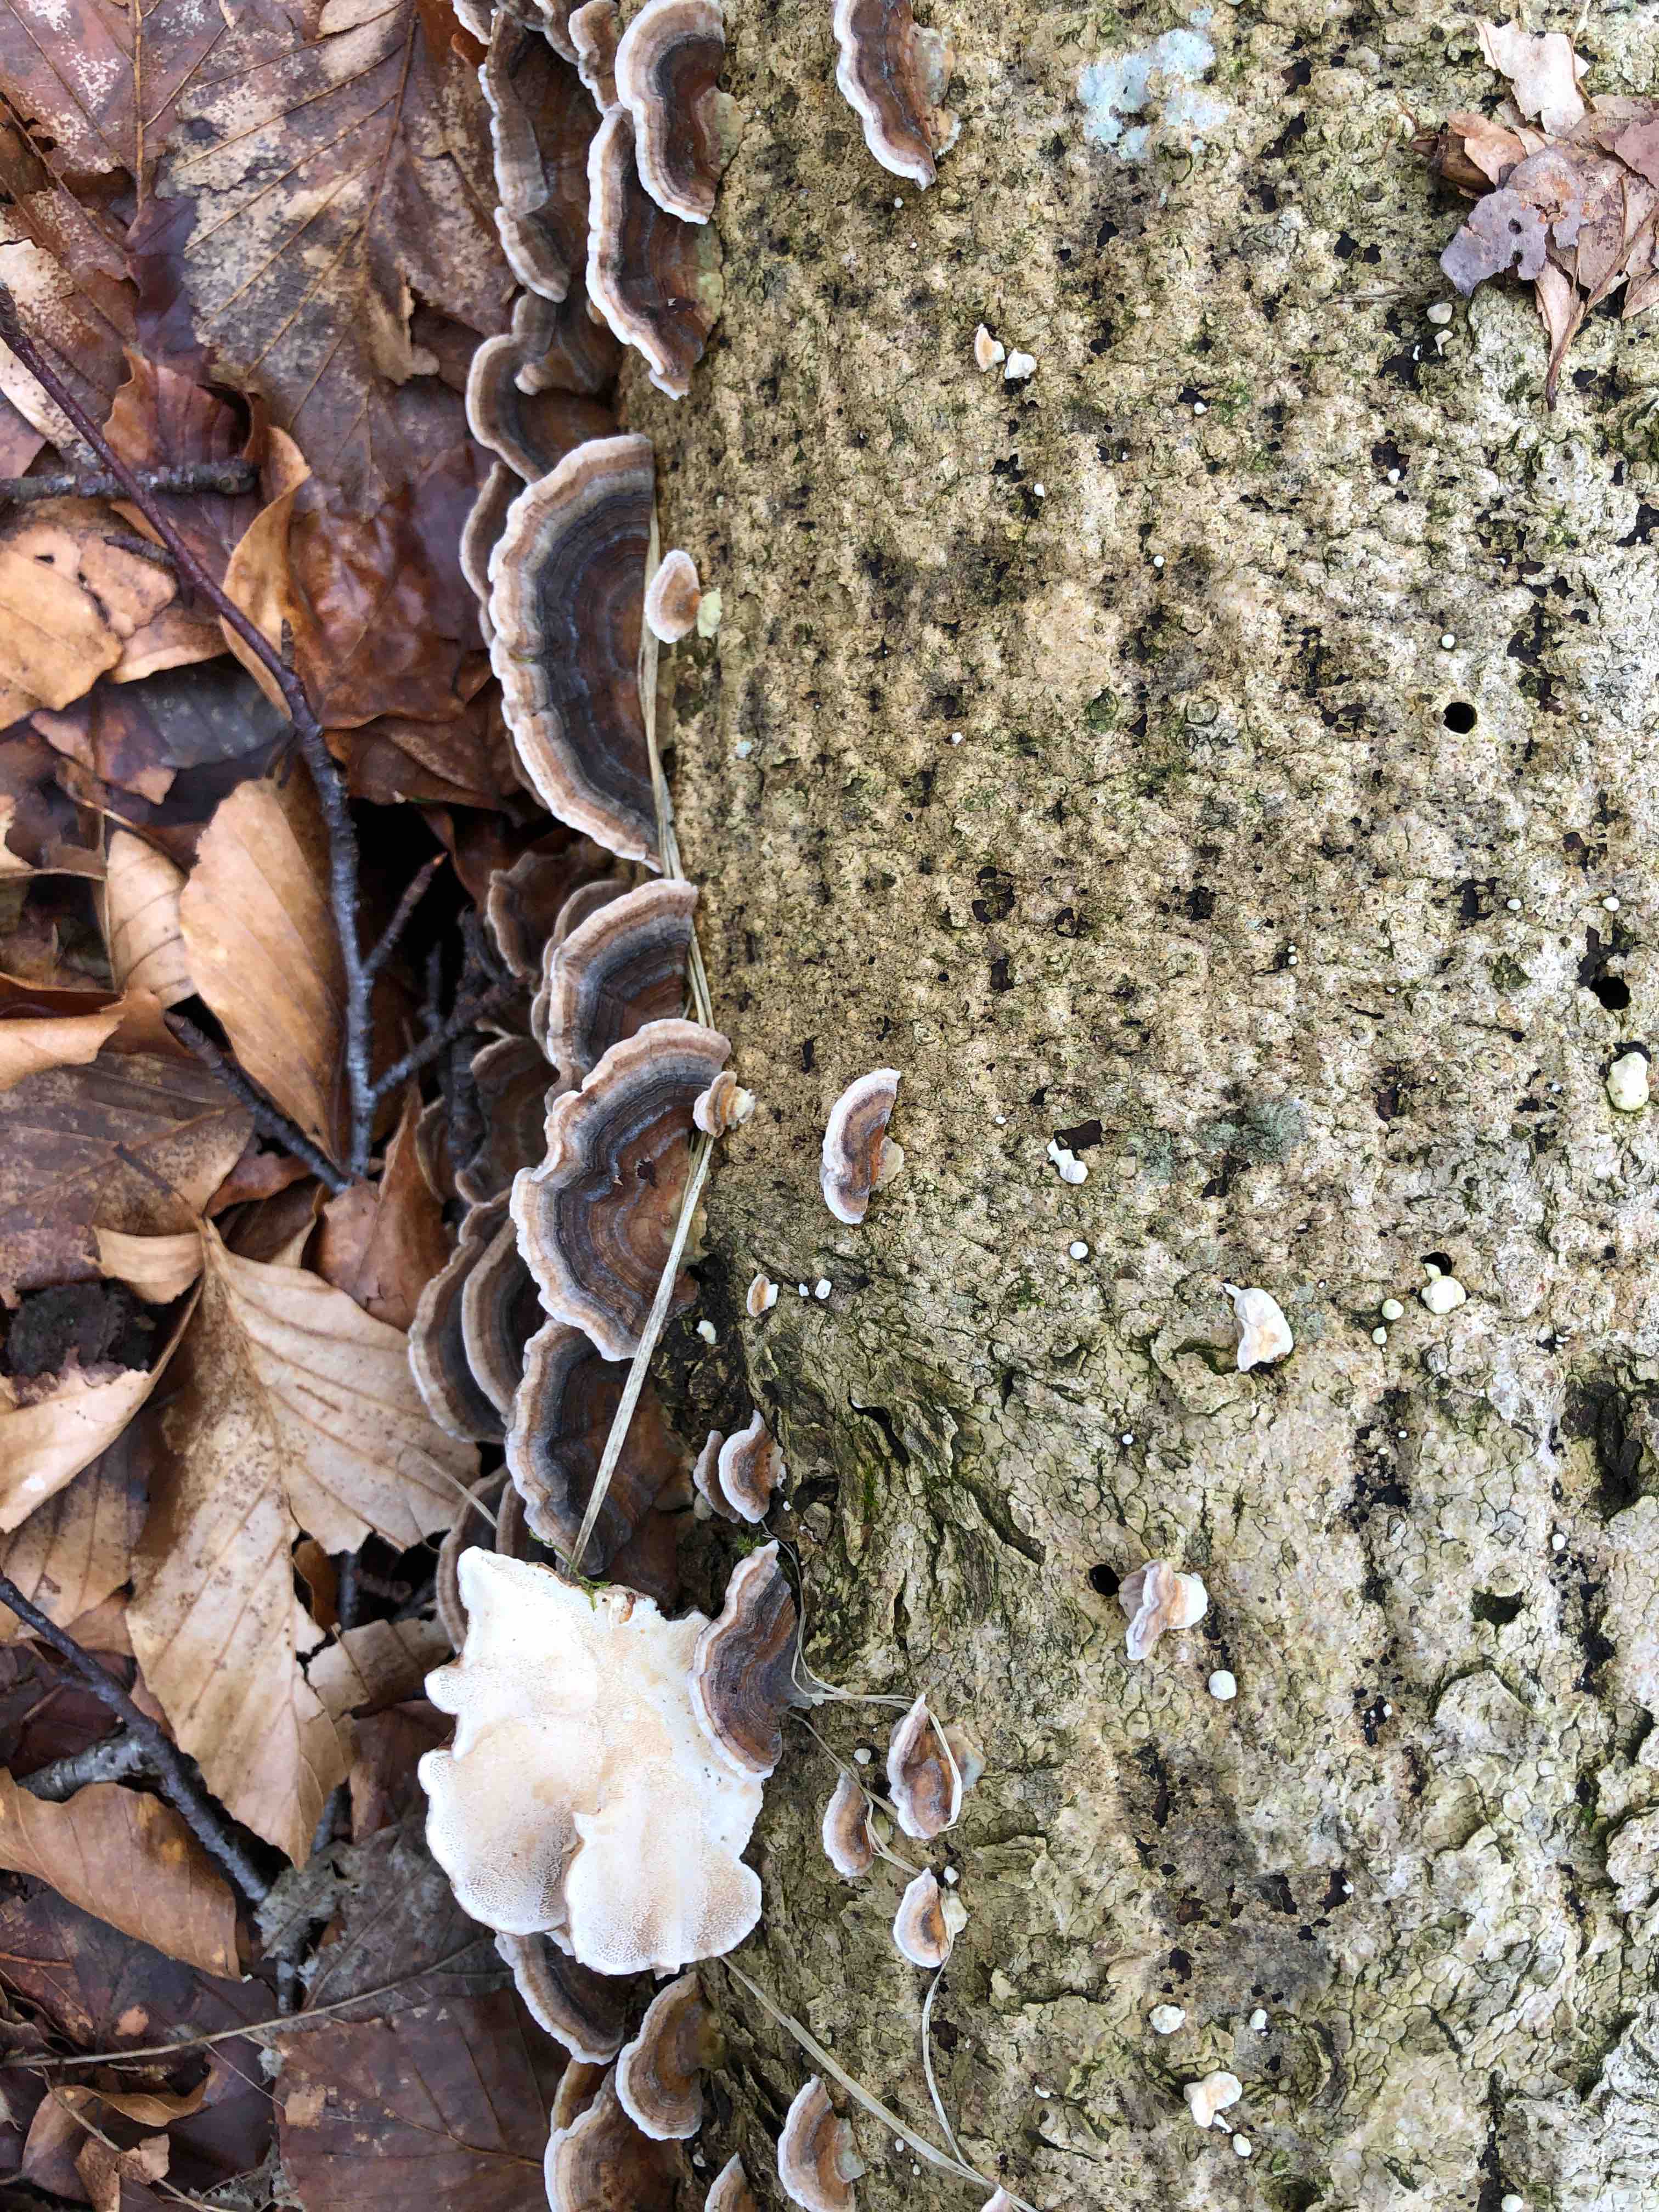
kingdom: Fungi
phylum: Basidiomycota
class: Agaricomycetes
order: Polyporales
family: Polyporaceae
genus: Trametes
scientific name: Trametes versicolor
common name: broget læderporesvamp
